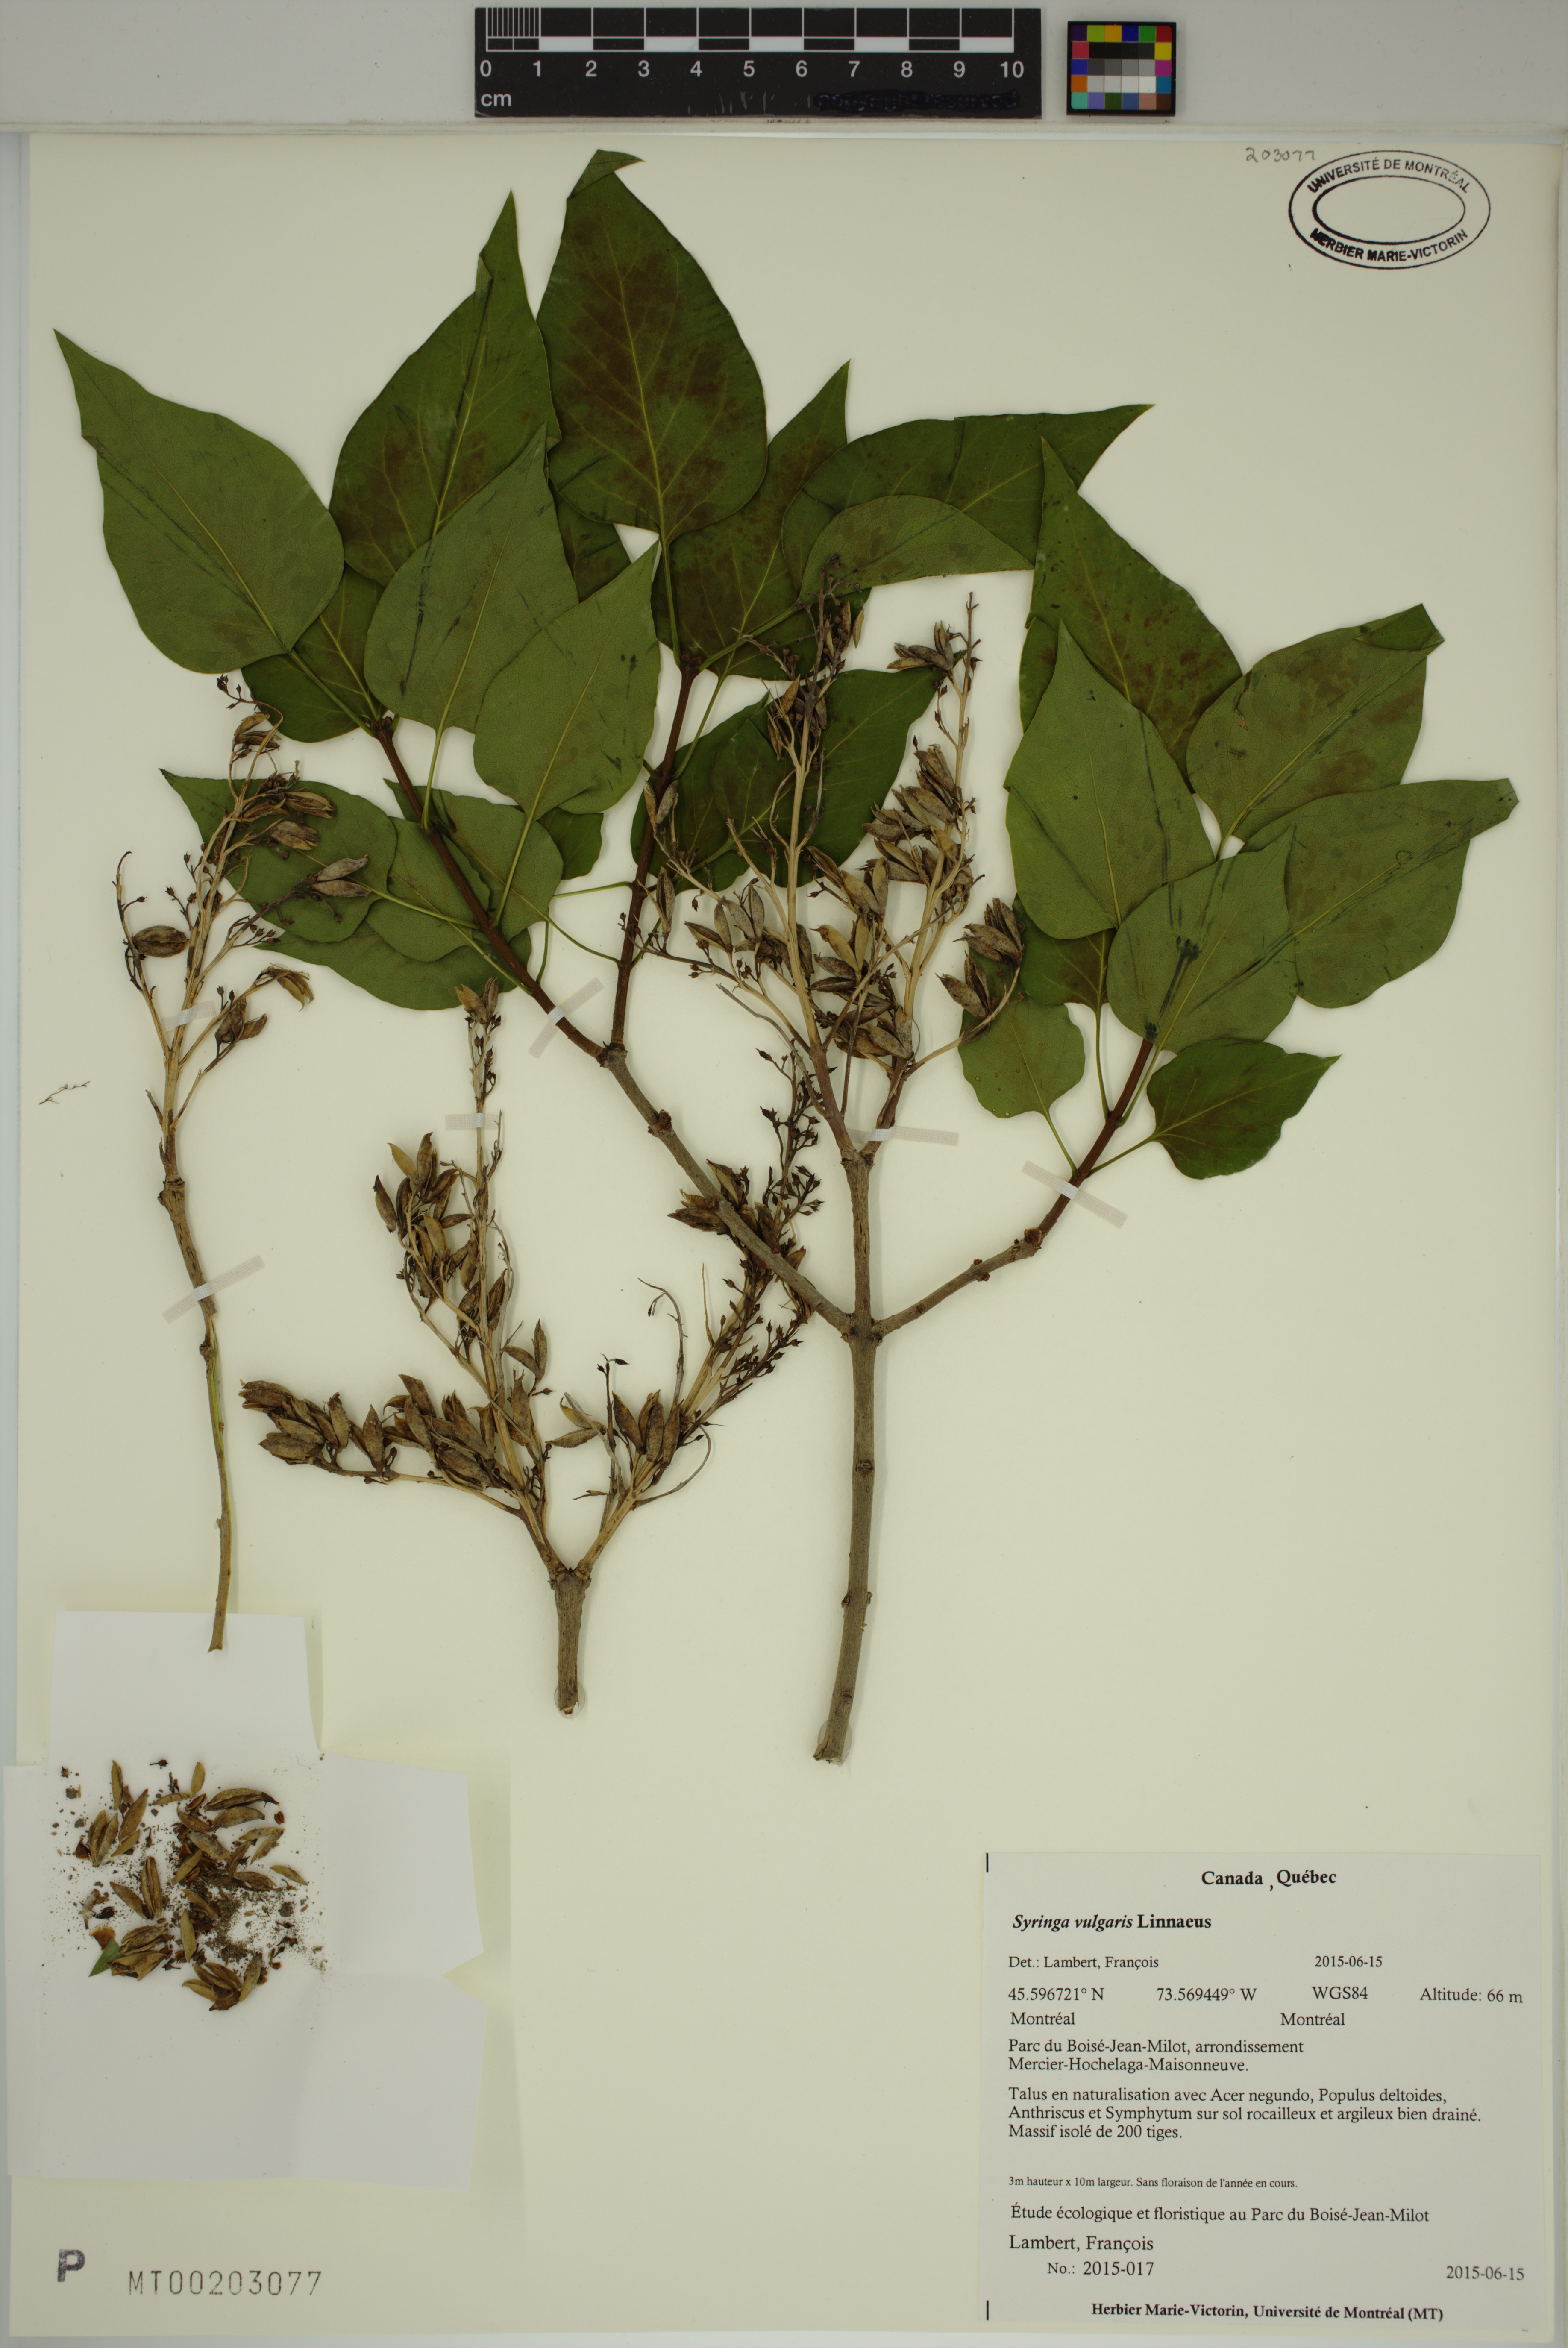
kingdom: Plantae
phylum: Tracheophyta
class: Magnoliopsida
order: Lamiales
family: Oleaceae
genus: Syringa
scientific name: Syringa vulgaris
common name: Common lilac
